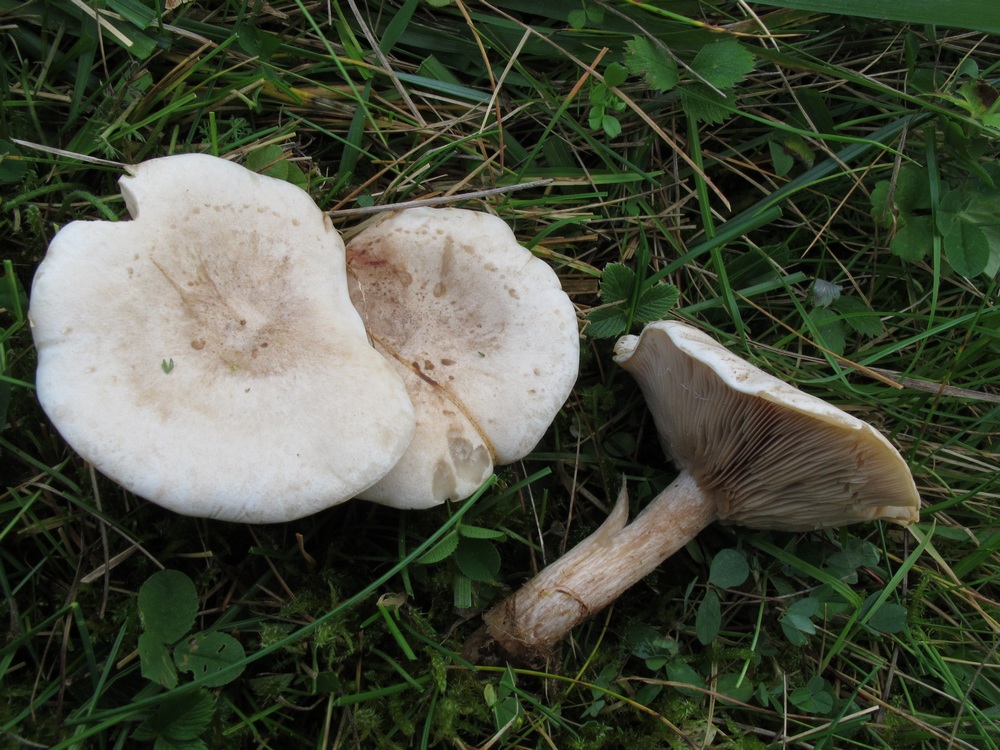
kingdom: Fungi
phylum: Basidiomycota
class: Agaricomycetes
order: Agaricales
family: Tricholomataceae
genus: Clitocybe
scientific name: Clitocybe rivulosa
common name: eng-tragthat
